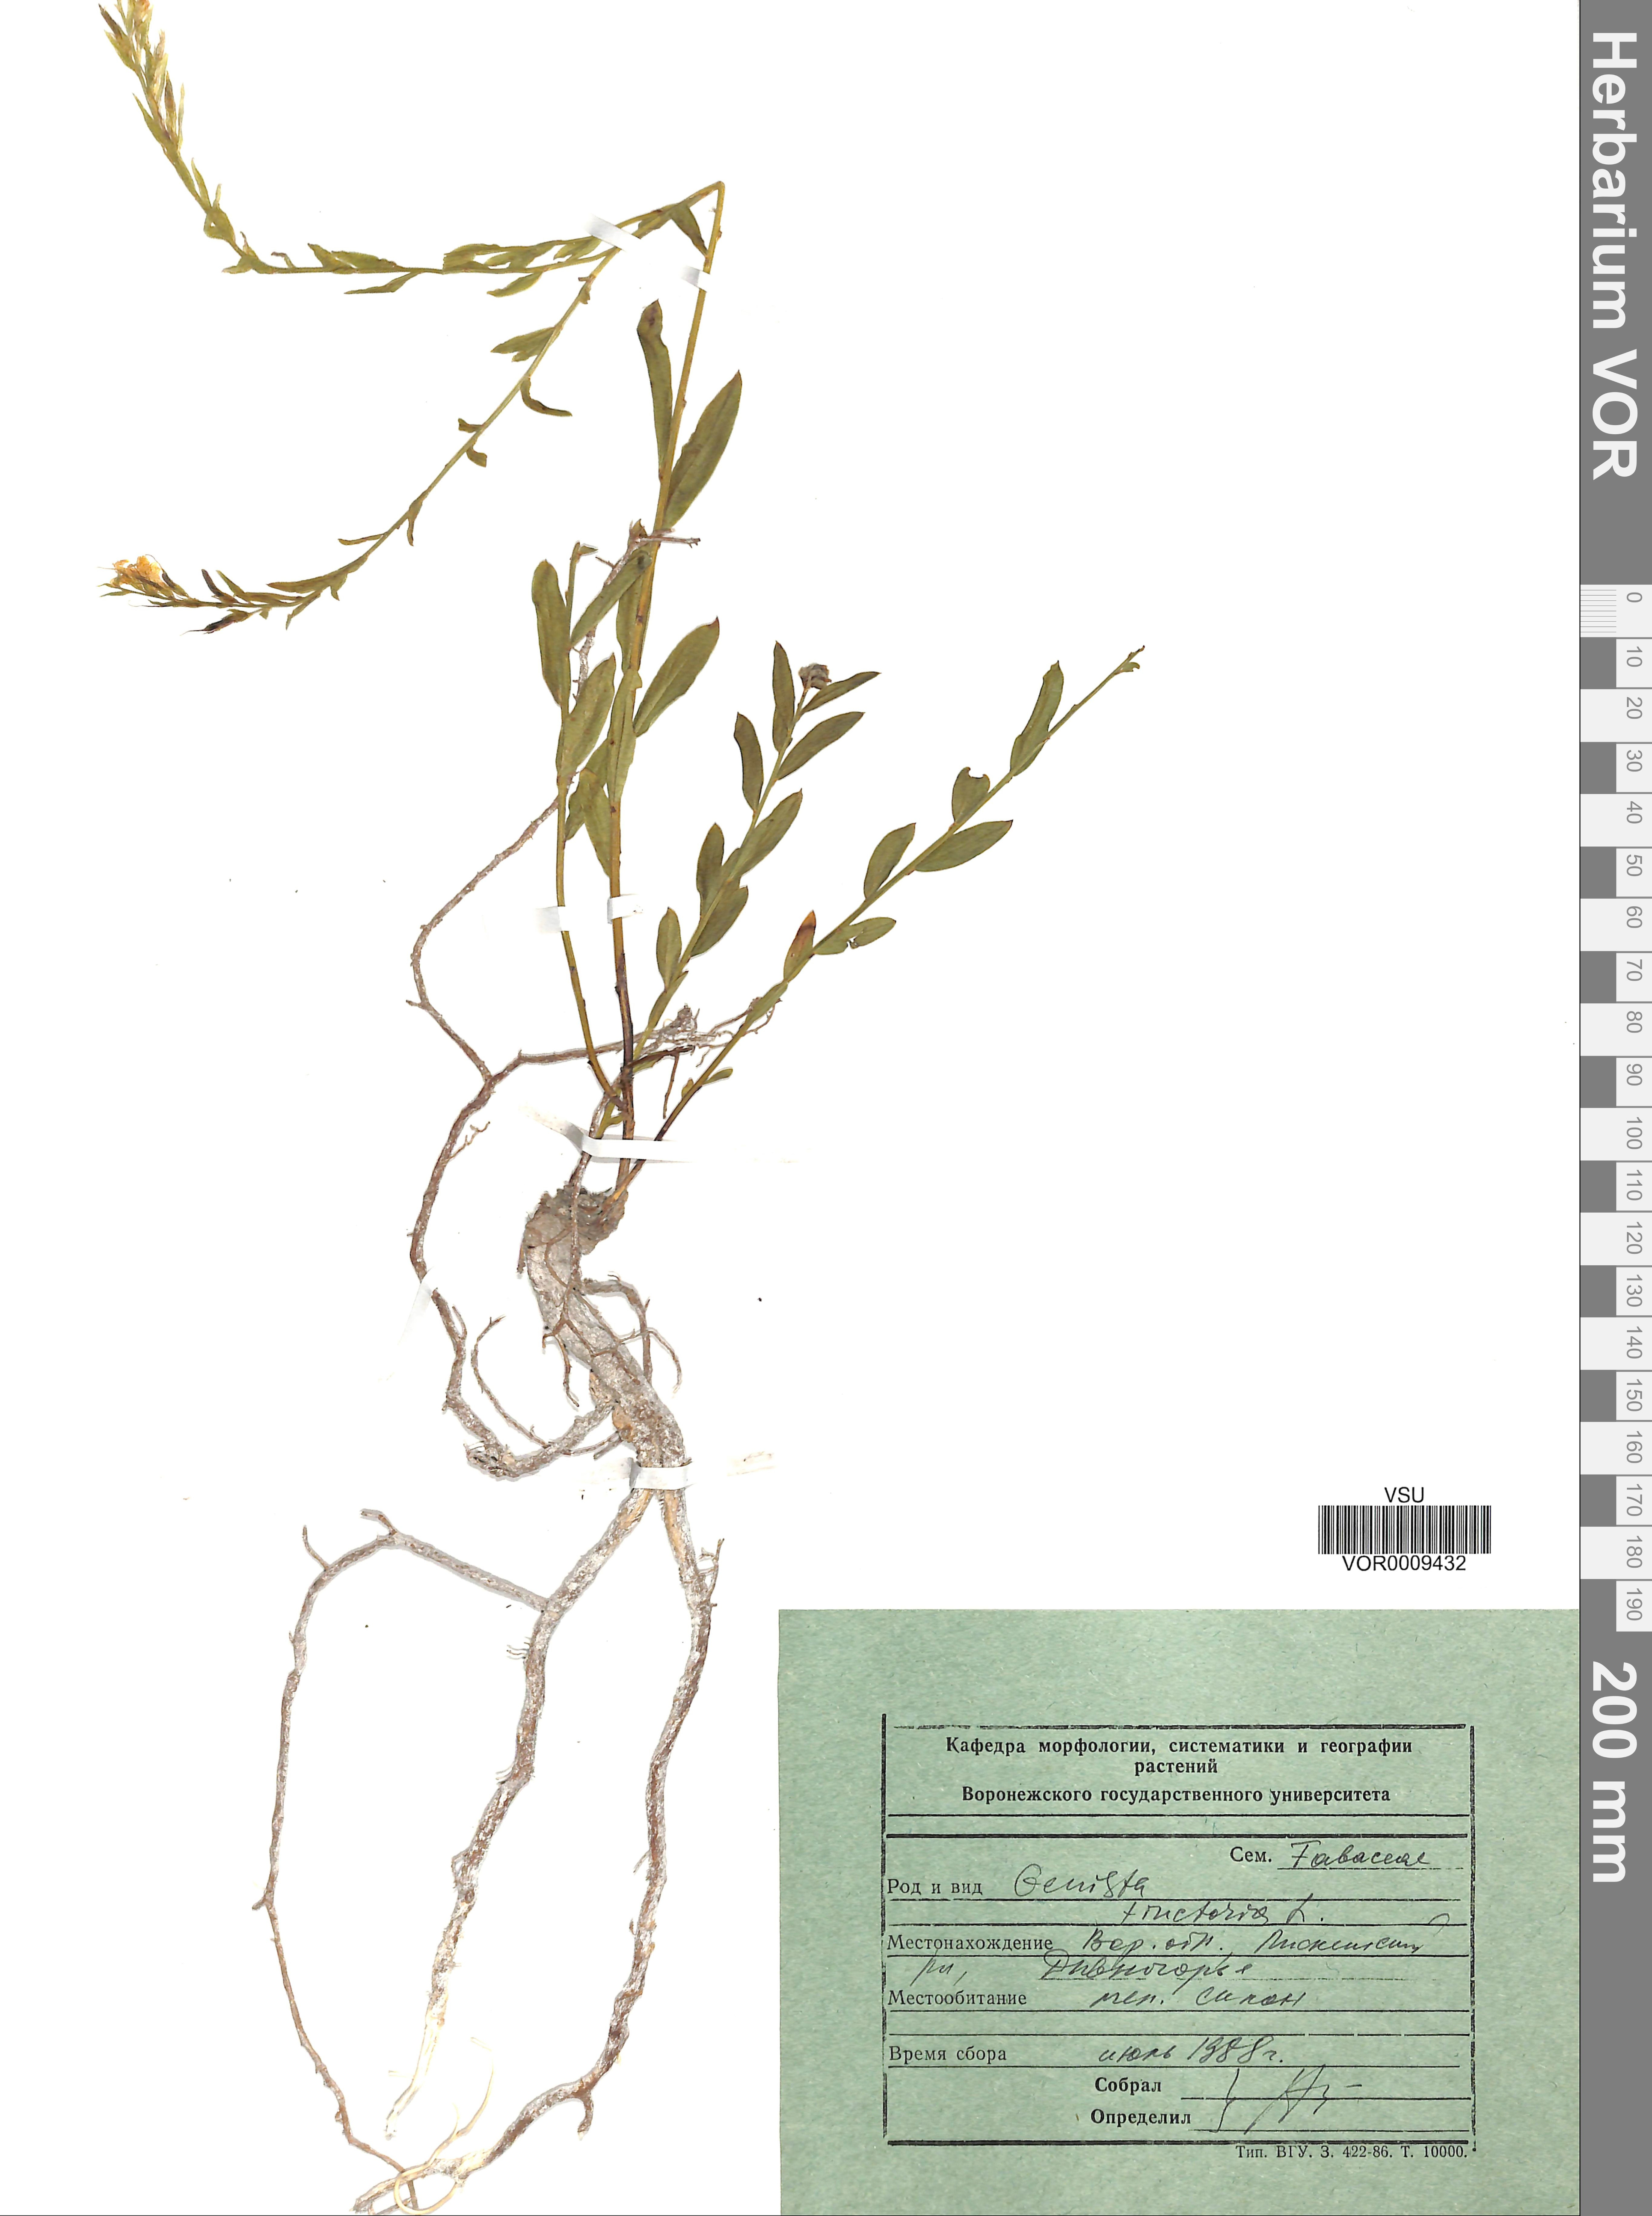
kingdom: Plantae
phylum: Tracheophyta
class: Magnoliopsida
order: Fabales
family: Fabaceae
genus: Genista
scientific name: Genista tinctoria
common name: Dyer's greenweed
